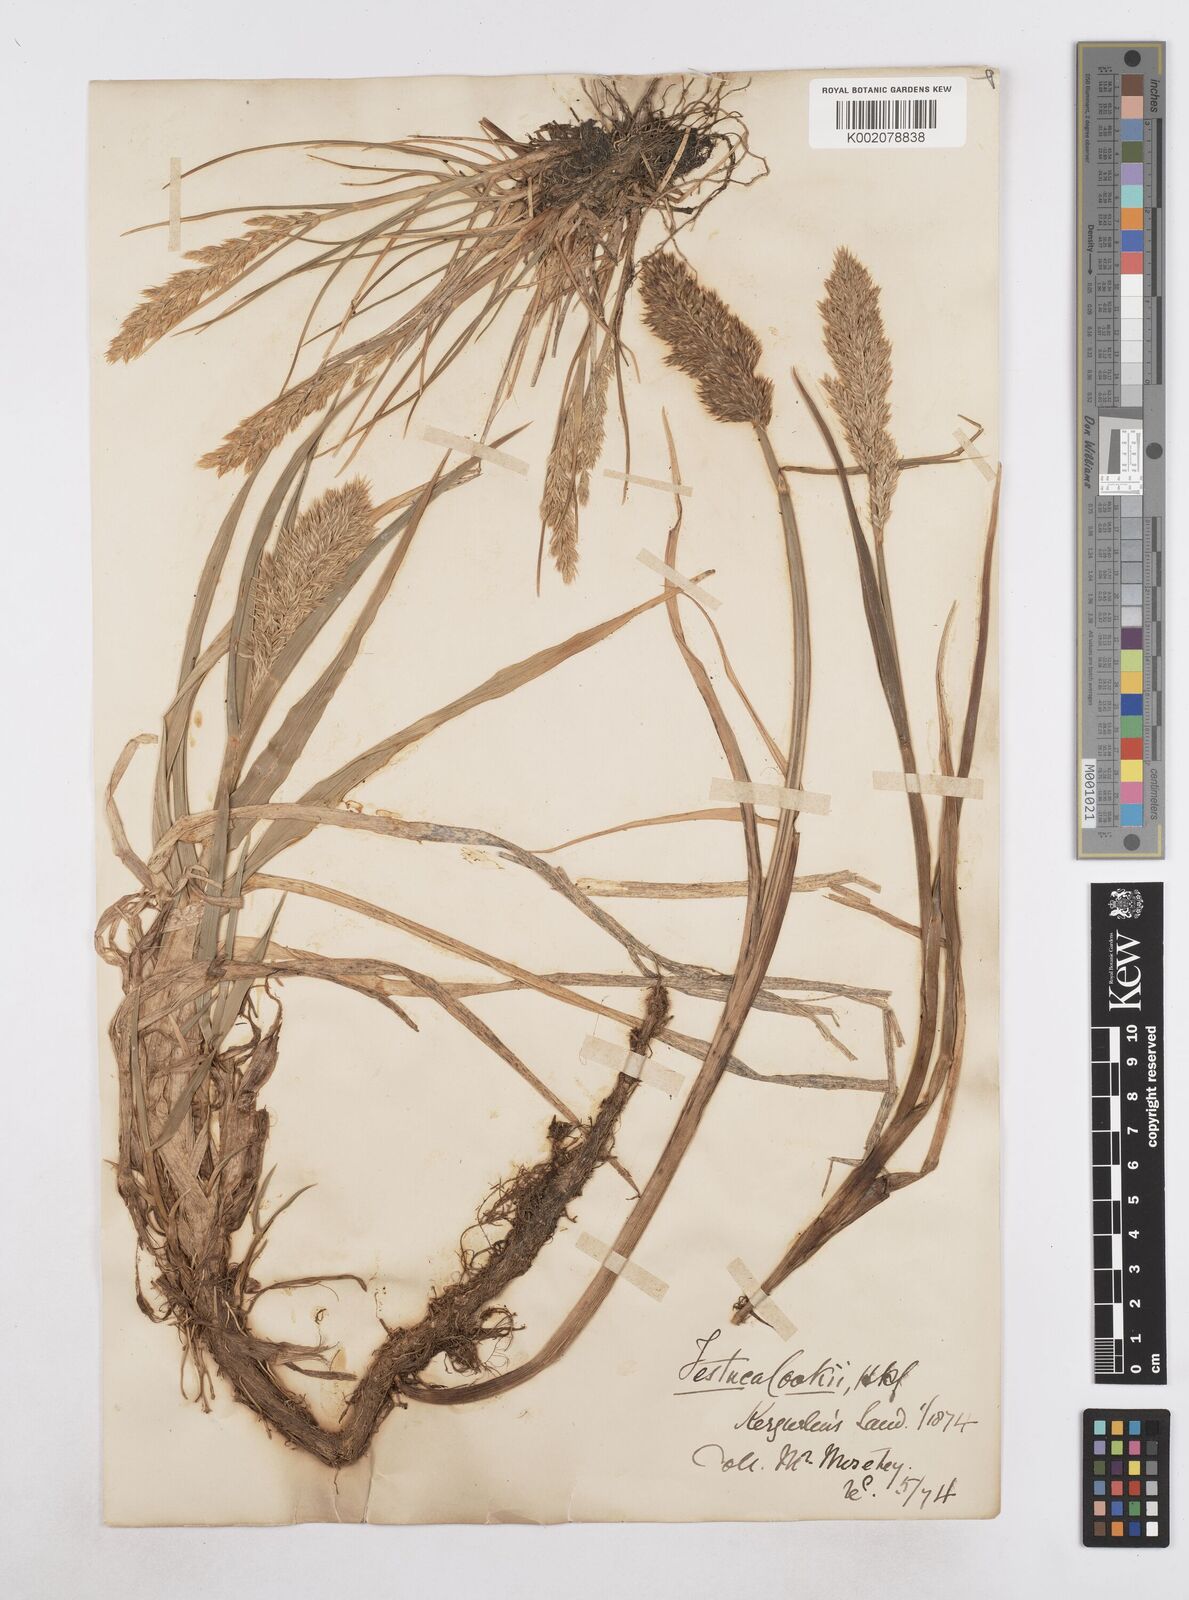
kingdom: Plantae
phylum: Tracheophyta
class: Liliopsida
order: Poales
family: Poaceae
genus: Poa
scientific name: Poa cookii
